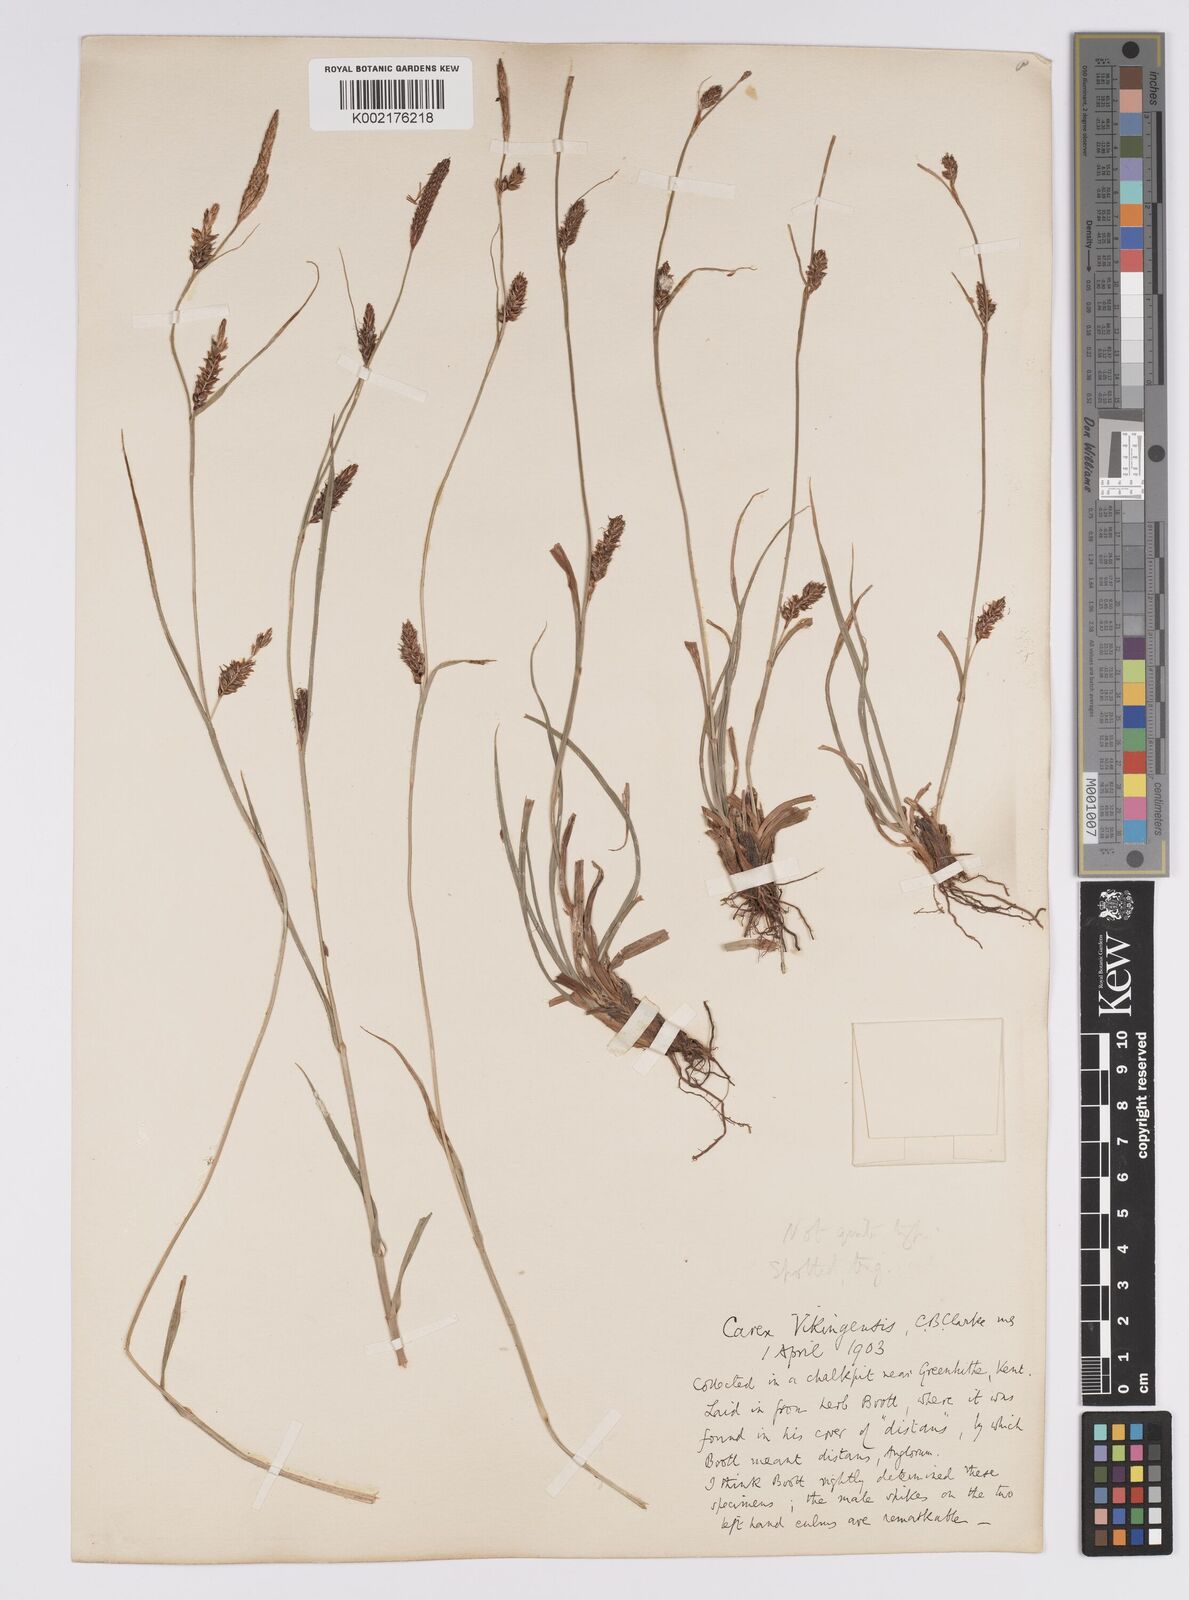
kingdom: Plantae
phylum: Tracheophyta
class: Liliopsida
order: Poales
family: Cyperaceae
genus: Carex
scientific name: Carex distans
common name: Distant sedge
